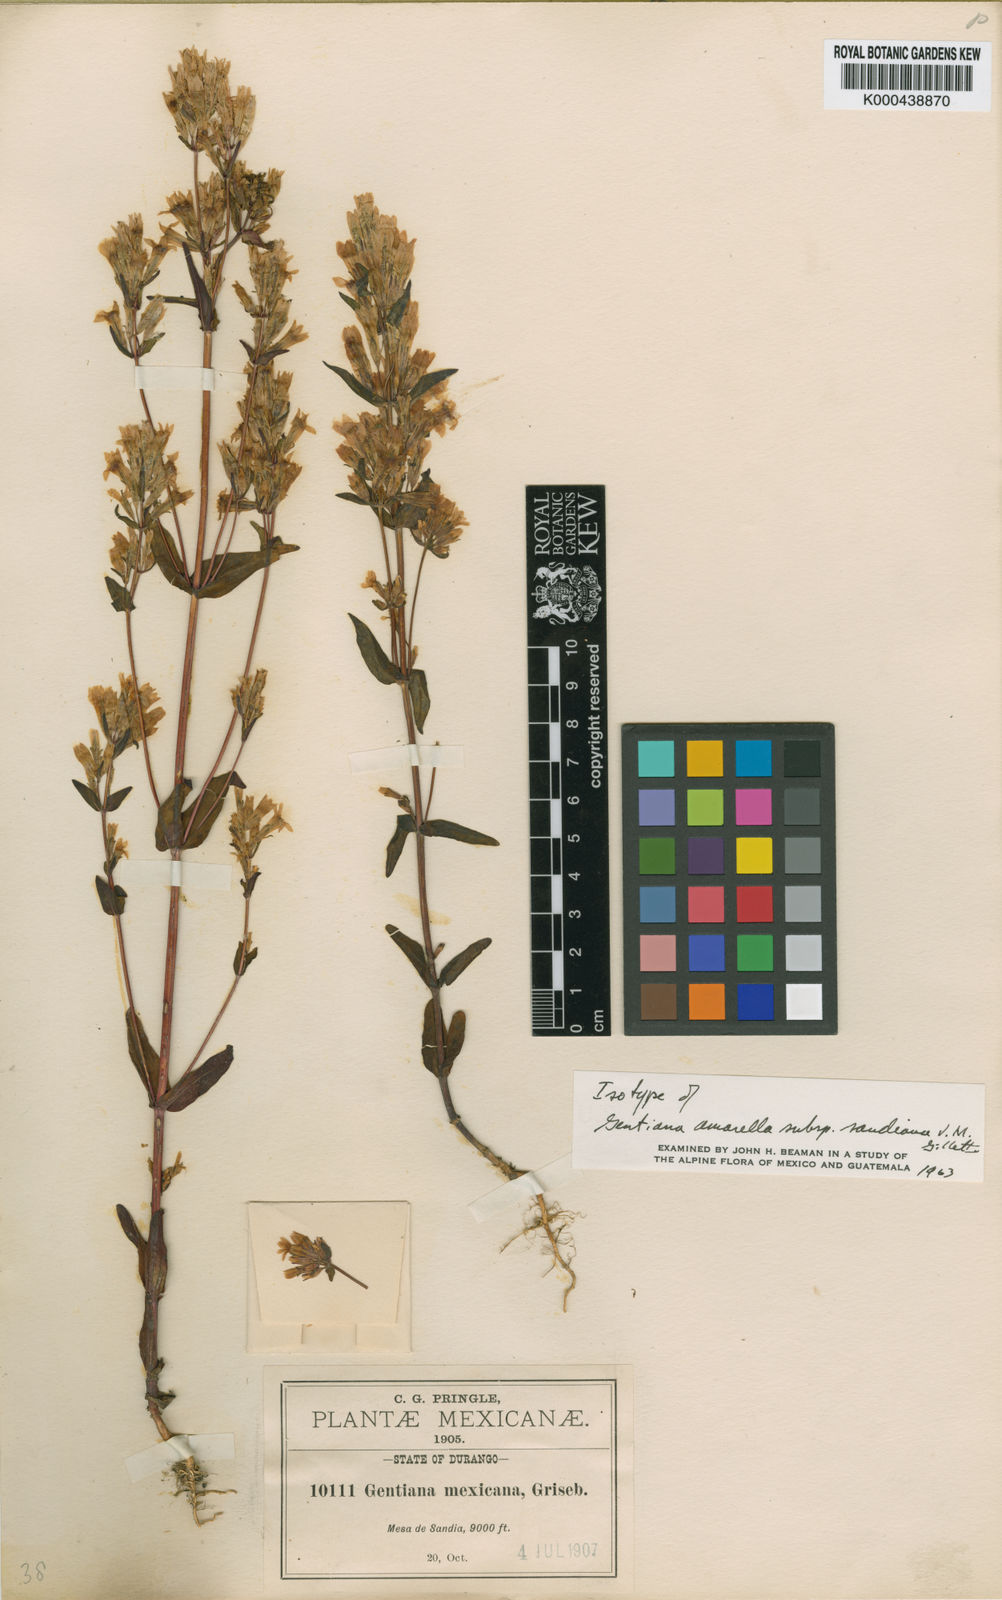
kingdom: Plantae
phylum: Tracheophyta
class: Magnoliopsida
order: Gentianales
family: Gentianaceae
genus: Gentianella
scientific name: Gentianella
